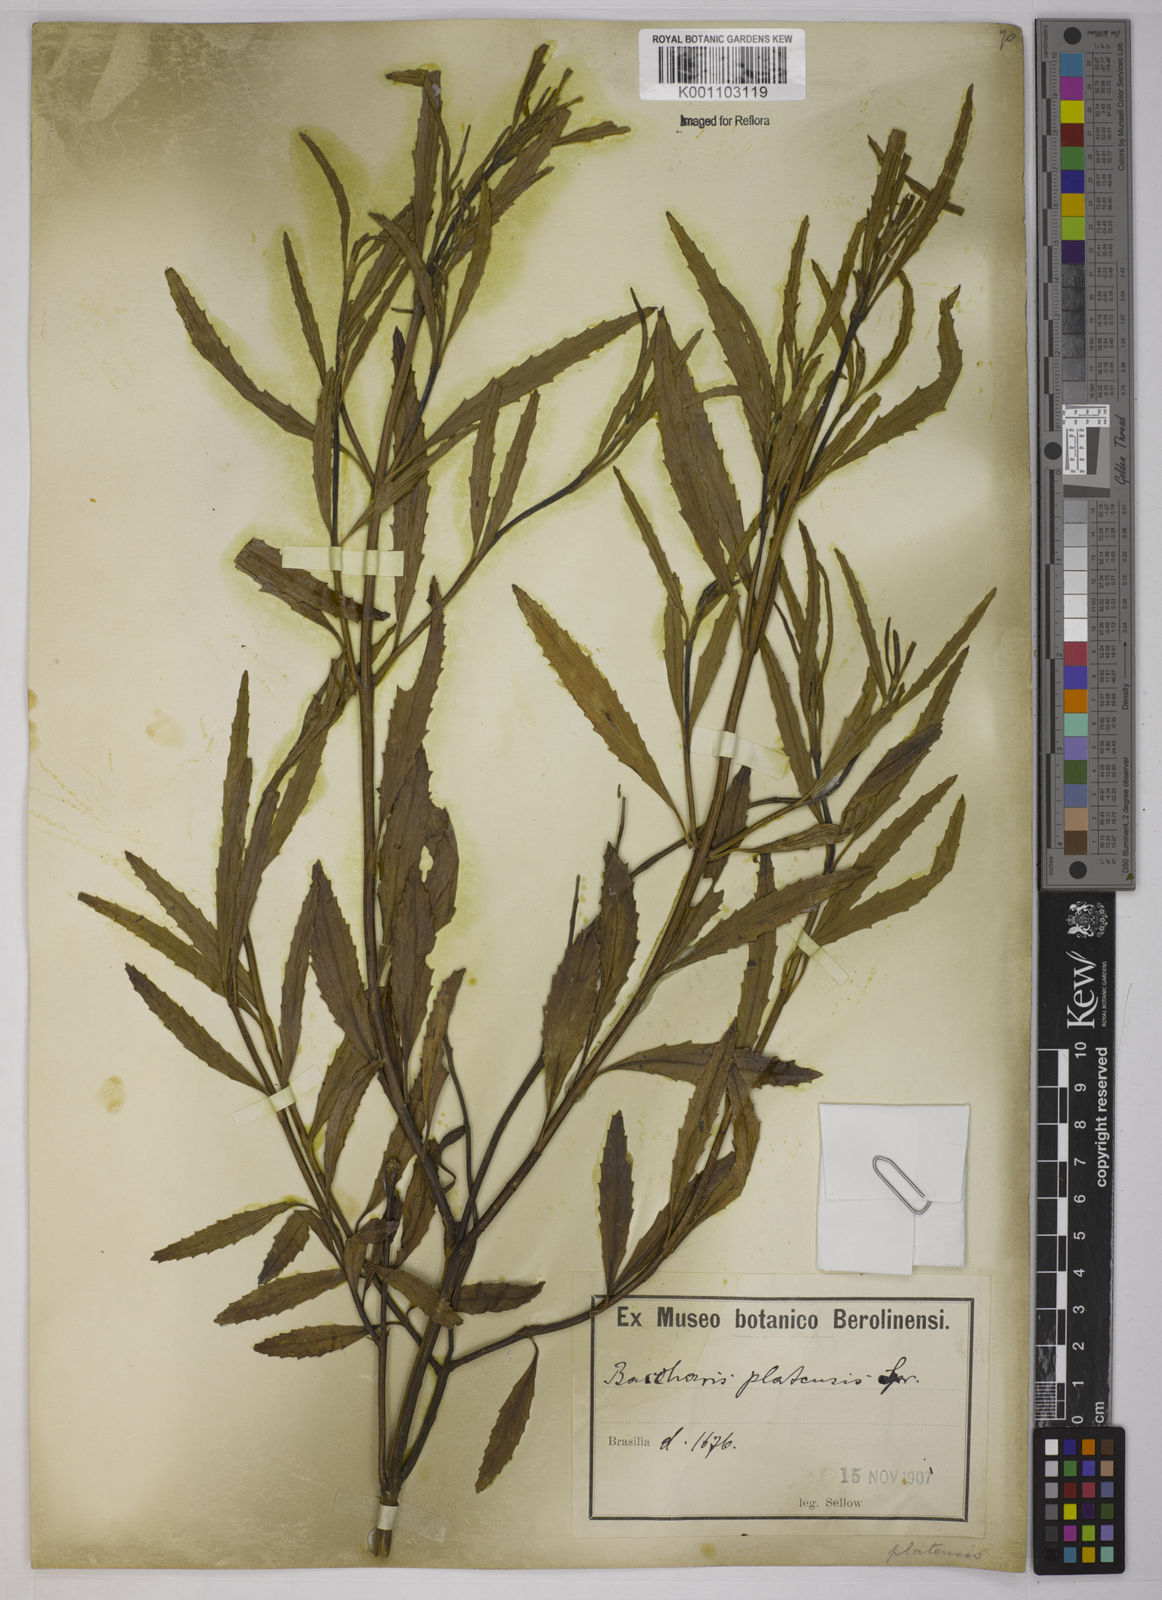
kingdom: Plantae
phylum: Tracheophyta
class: Magnoliopsida
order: Asterales
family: Asteraceae
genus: Baccharis
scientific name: Baccharis hieronymi
